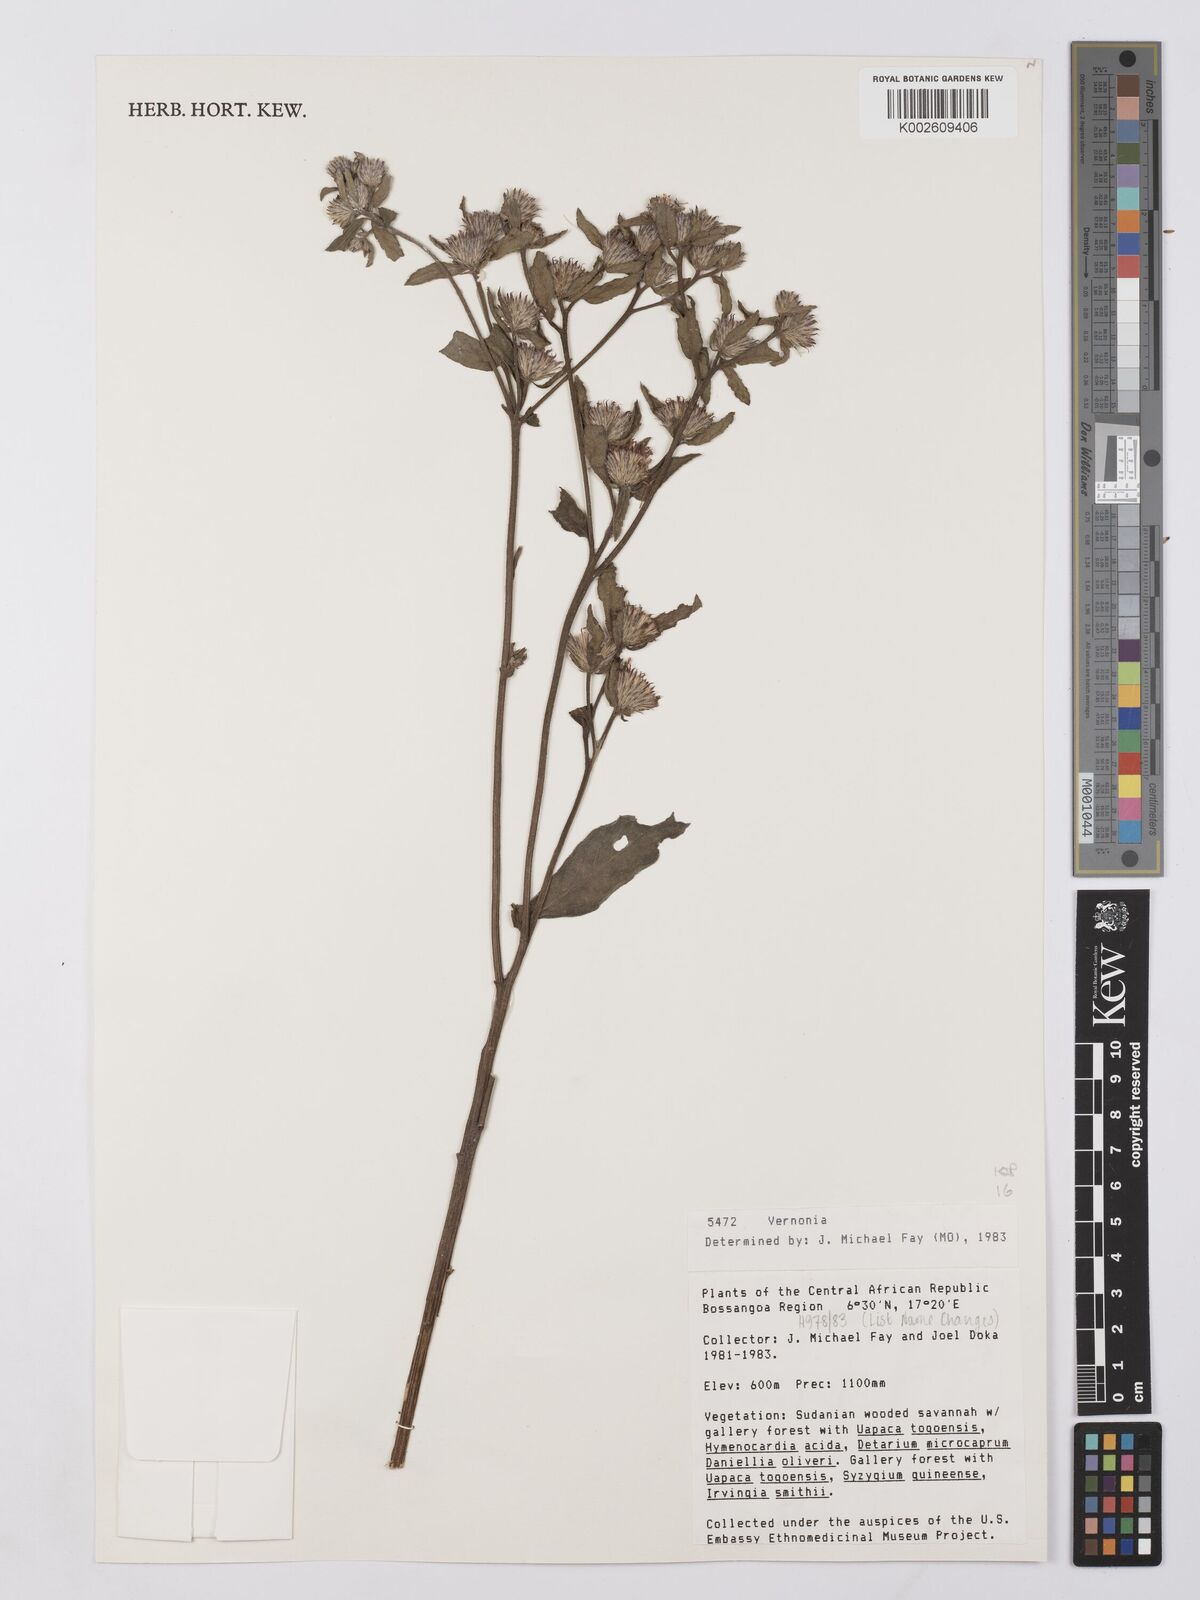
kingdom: Plantae
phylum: Tracheophyta
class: Magnoliopsida
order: Asterales
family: Asteraceae
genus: Vernonia
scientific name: Vernonia
